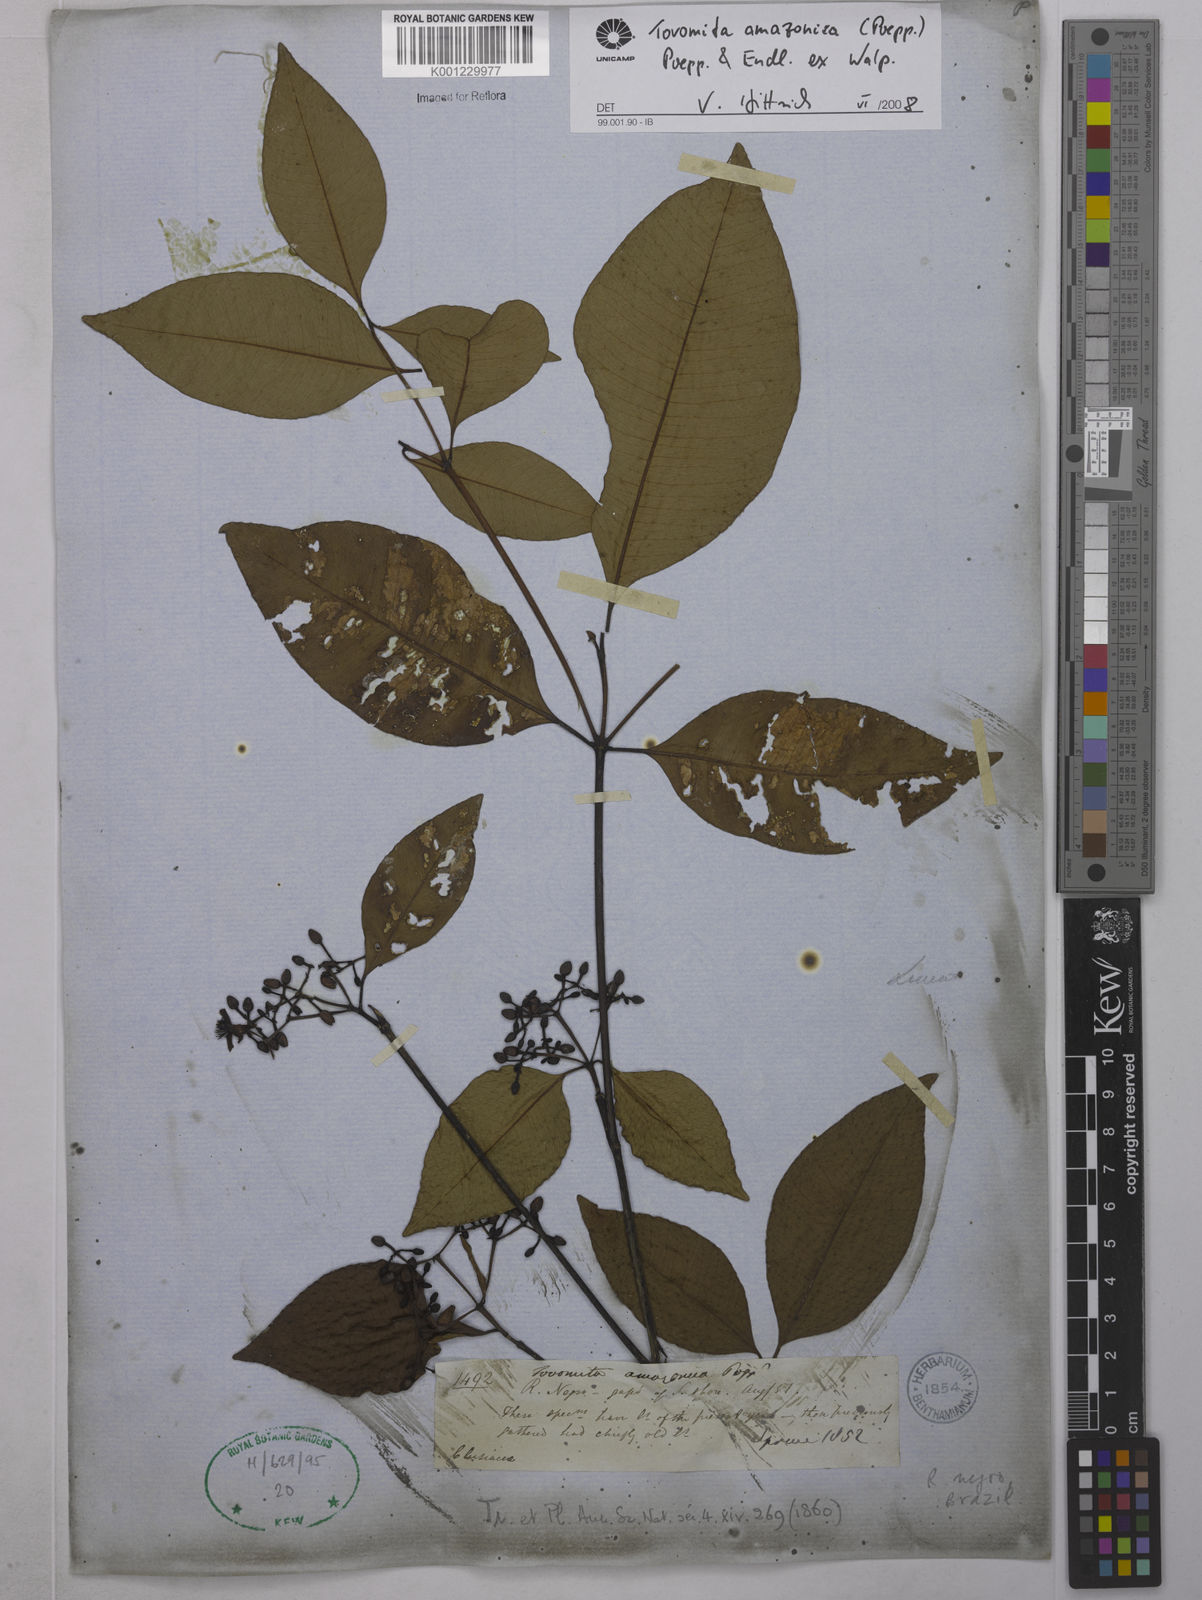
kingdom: Plantae
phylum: Tracheophyta
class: Magnoliopsida
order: Malpighiales
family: Clusiaceae
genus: Tovomita
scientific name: Tovomita amazonica
